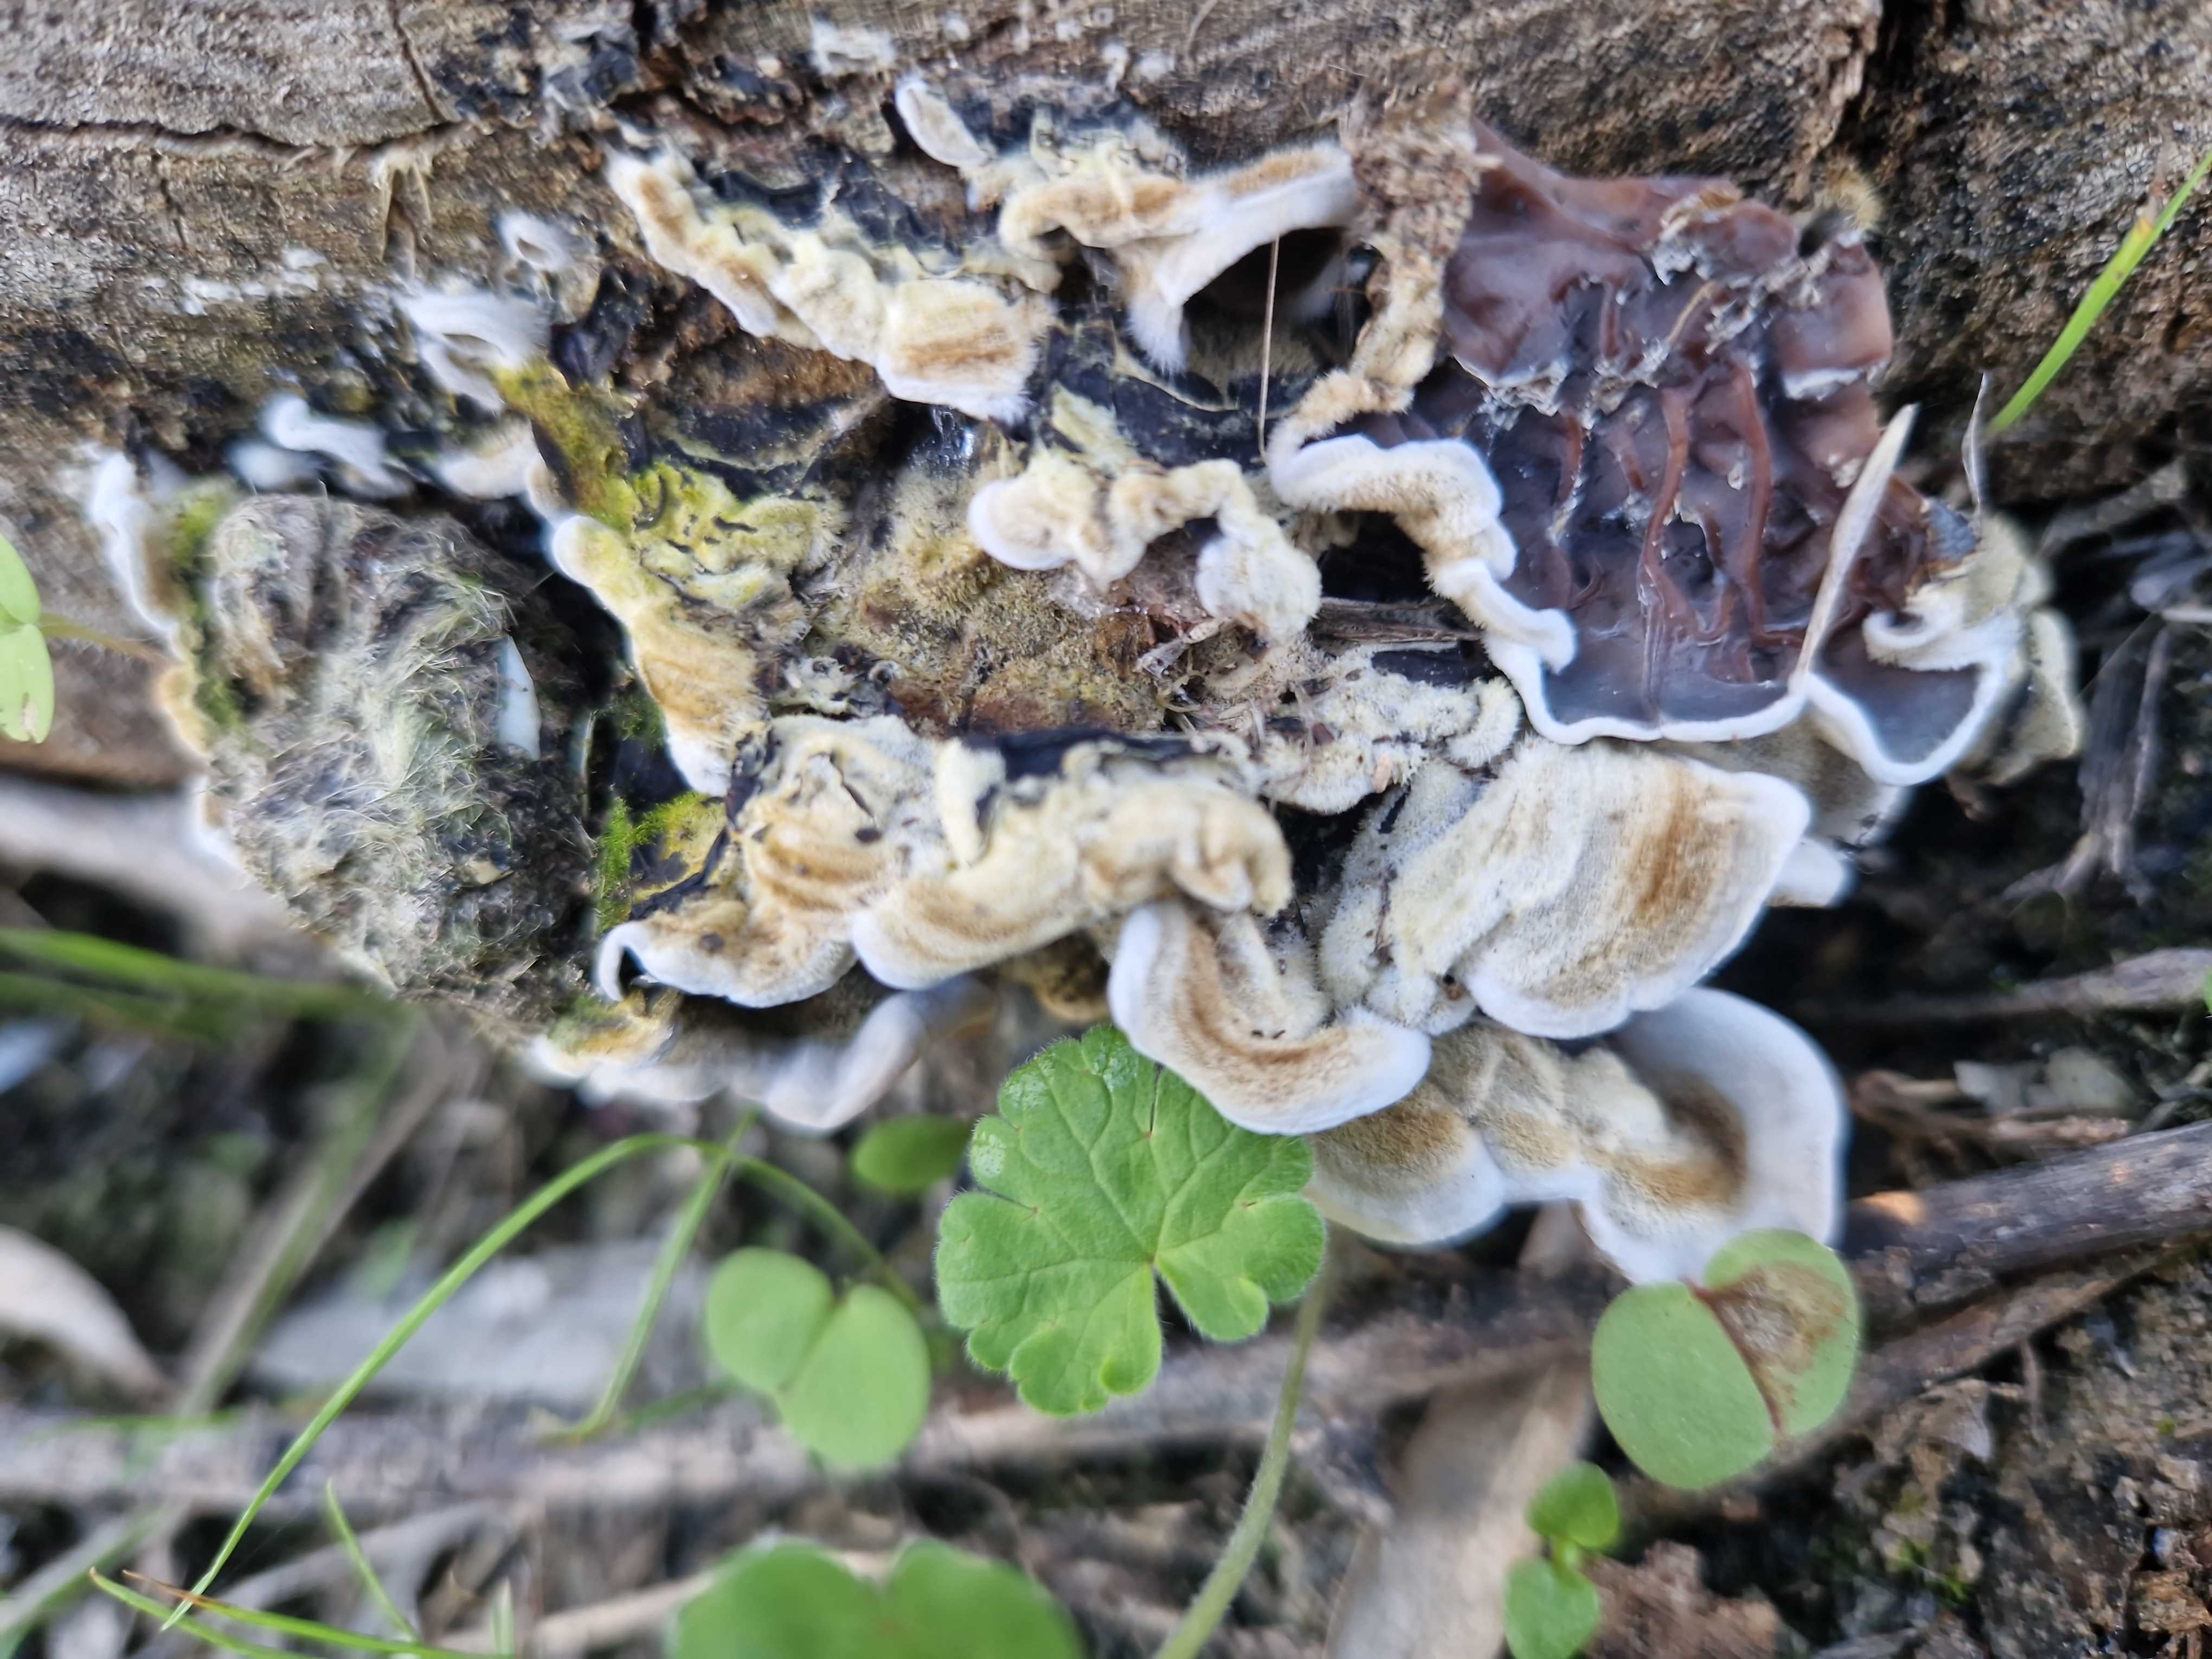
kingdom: Fungi
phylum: Basidiomycota
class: Agaricomycetes
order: Auriculariales
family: Auriculariaceae
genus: Auricularia
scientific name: Auricularia mesenterica
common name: håret judasøre
